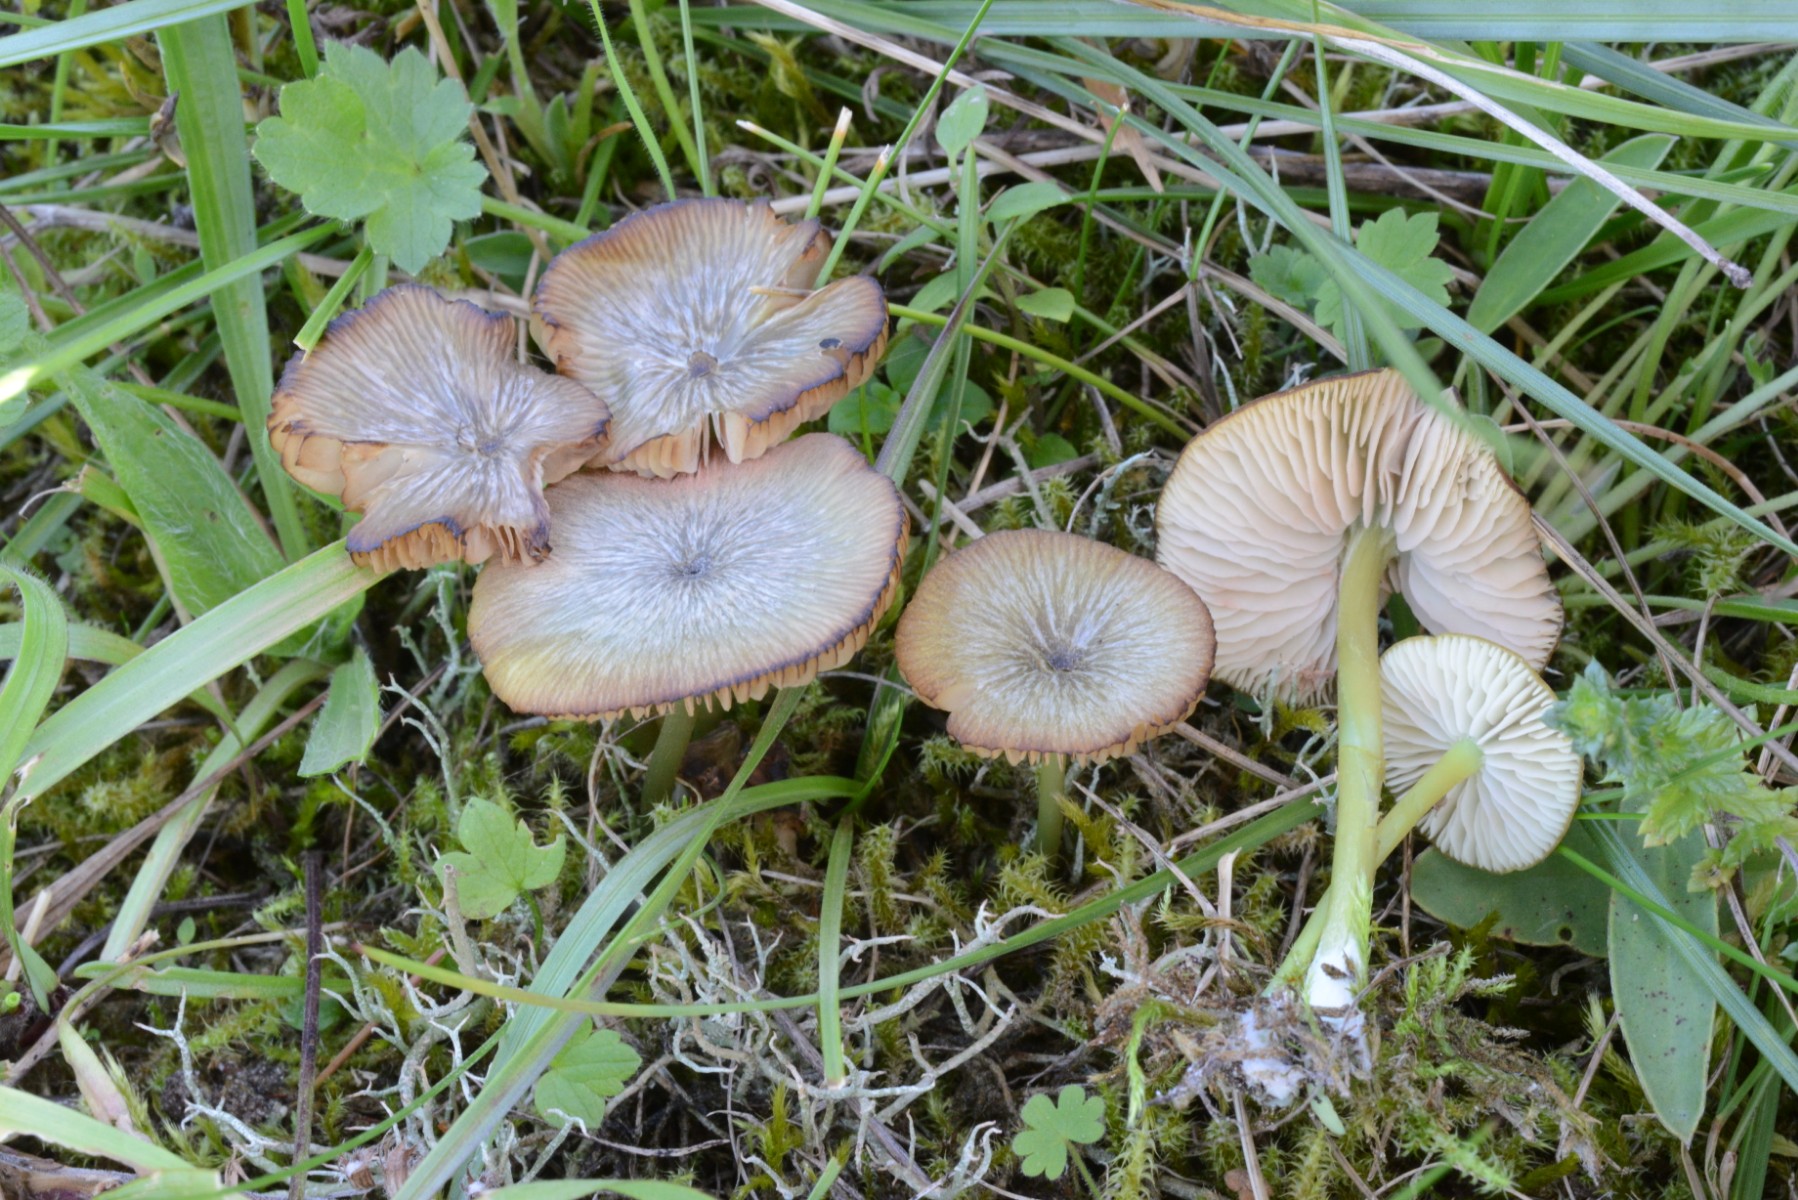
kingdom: Fungi
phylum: Basidiomycota
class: Agaricomycetes
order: Agaricales
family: Entolomataceae
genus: Entoloma
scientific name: Entoloma incanum
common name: grøngul rødblad
